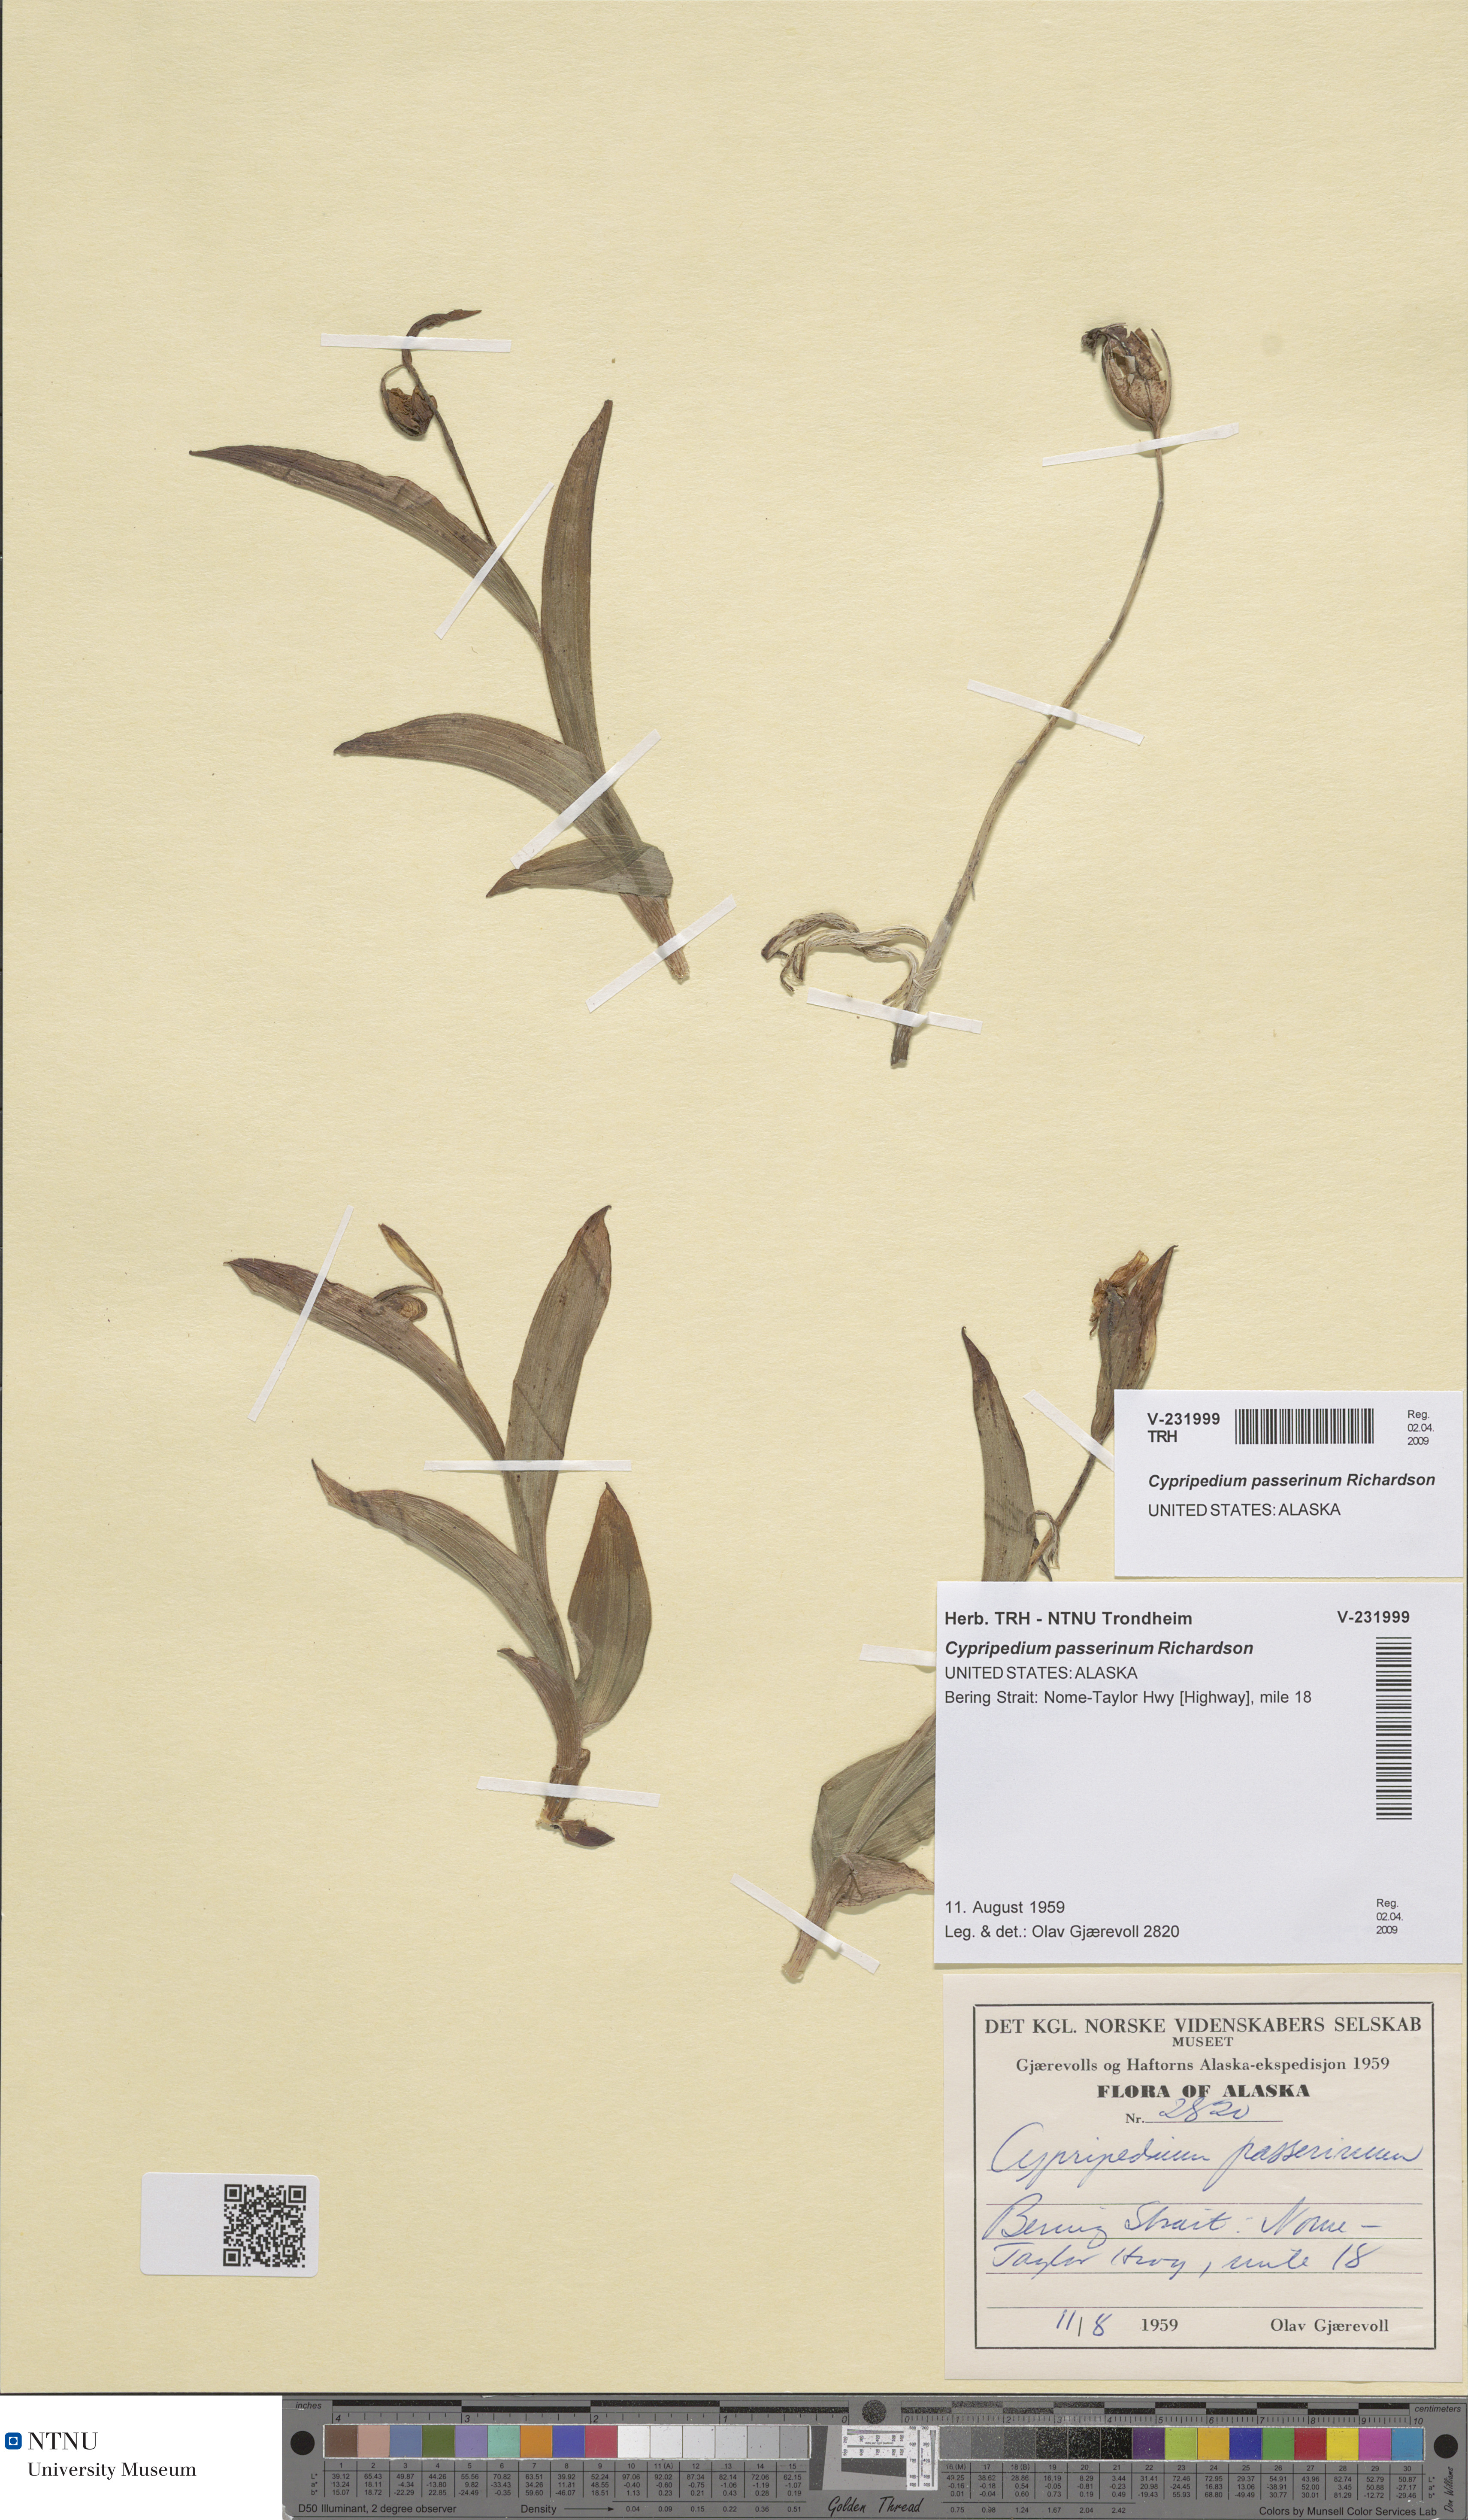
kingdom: Plantae
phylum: Tracheophyta
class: Liliopsida
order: Asparagales
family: Orchidaceae
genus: Cypripedium
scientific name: Cypripedium passerinum
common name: Sparrow's-egg lady's-slipper
